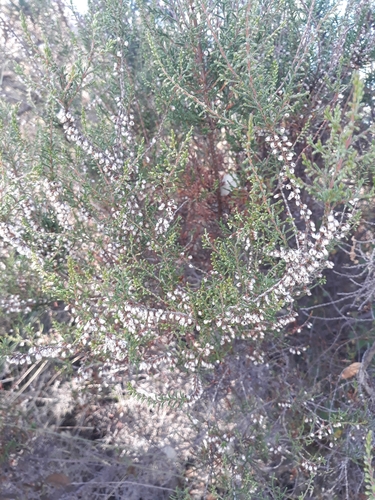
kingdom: Plantae
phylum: Tracheophyta
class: Magnoliopsida
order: Ericales
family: Ericaceae
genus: Calluna
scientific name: Calluna vulgaris
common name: Heather
